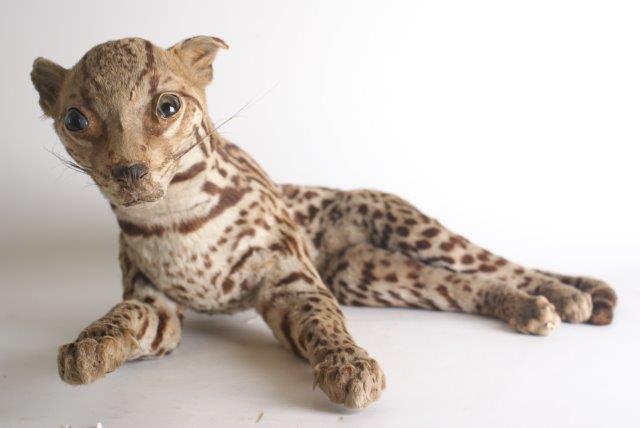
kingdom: Animalia
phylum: Chordata
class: Mammalia
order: Carnivora
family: Felidae
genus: Leopardus
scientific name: Leopardus pardalis
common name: Ocelot
